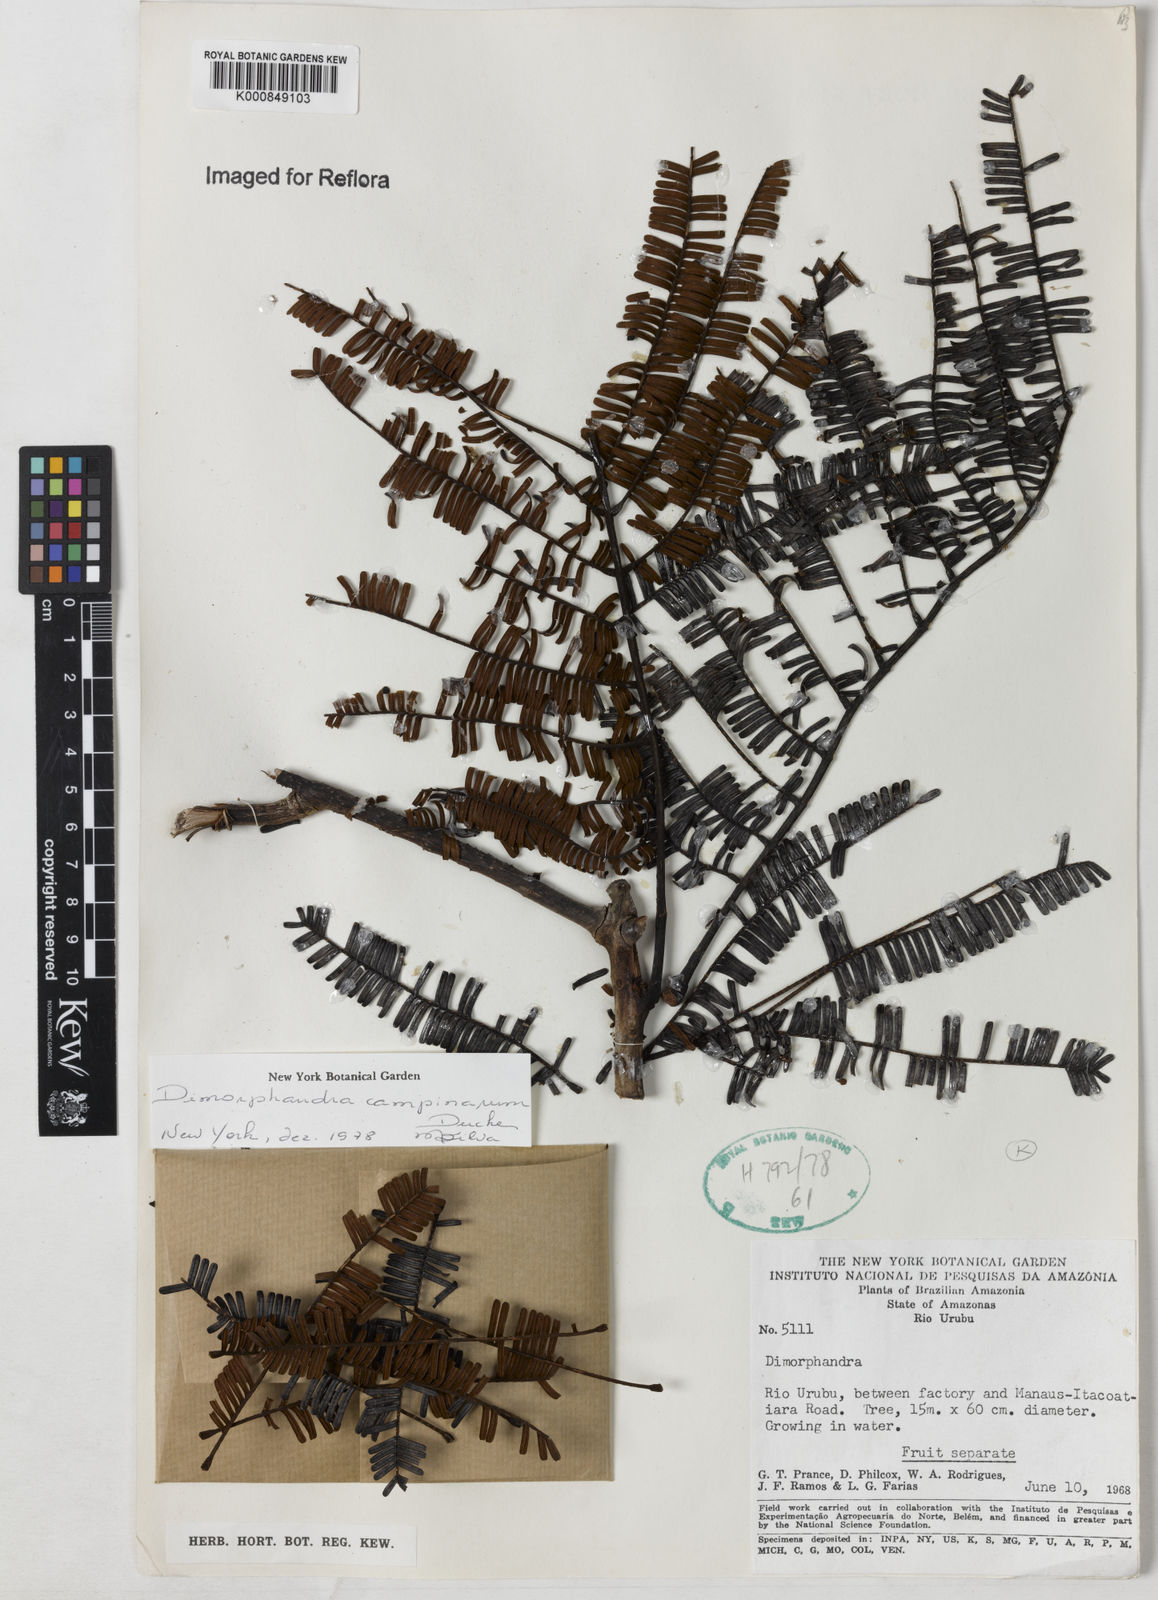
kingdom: Plantae
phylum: Tracheophyta
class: Magnoliopsida
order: Fabales
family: Fabaceae
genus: Dimorphandra
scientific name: Dimorphandra campinarum
